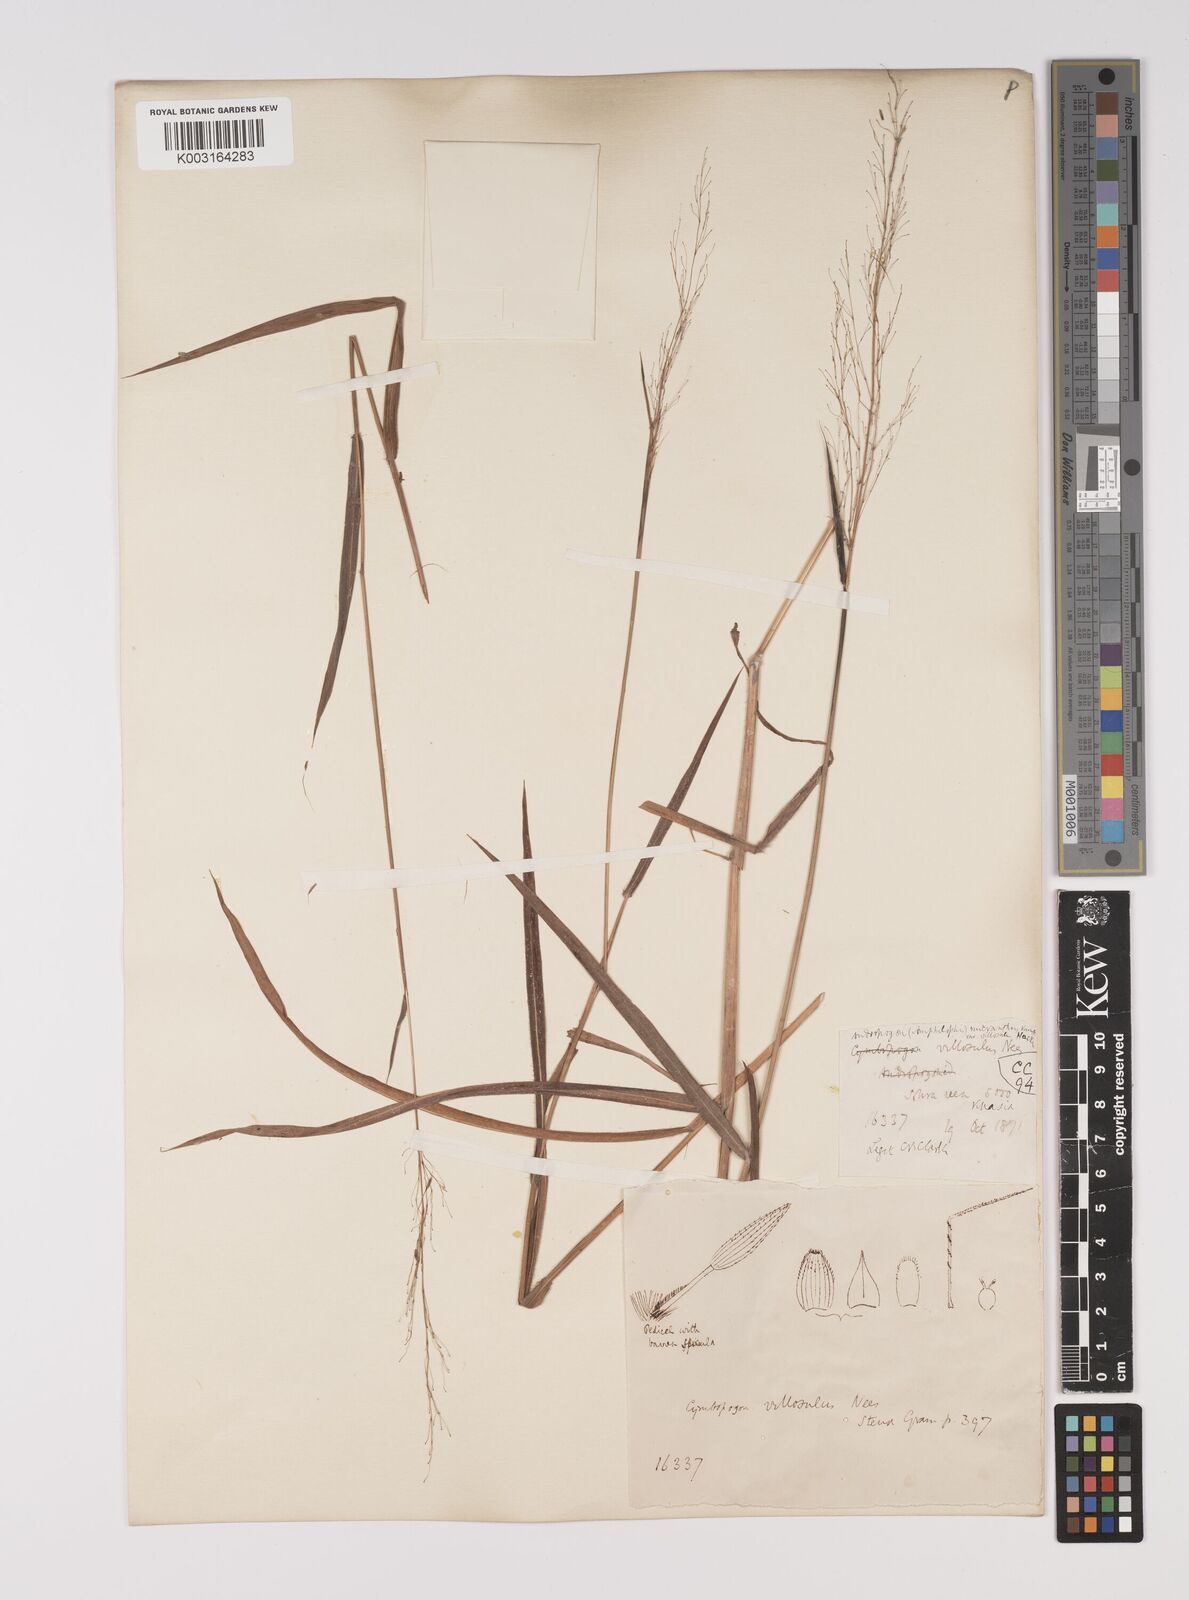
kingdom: Plantae
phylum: Tracheophyta
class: Liliopsida
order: Poales
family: Poaceae
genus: Capillipedium
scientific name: Capillipedium parviflorum
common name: Golden-beard
